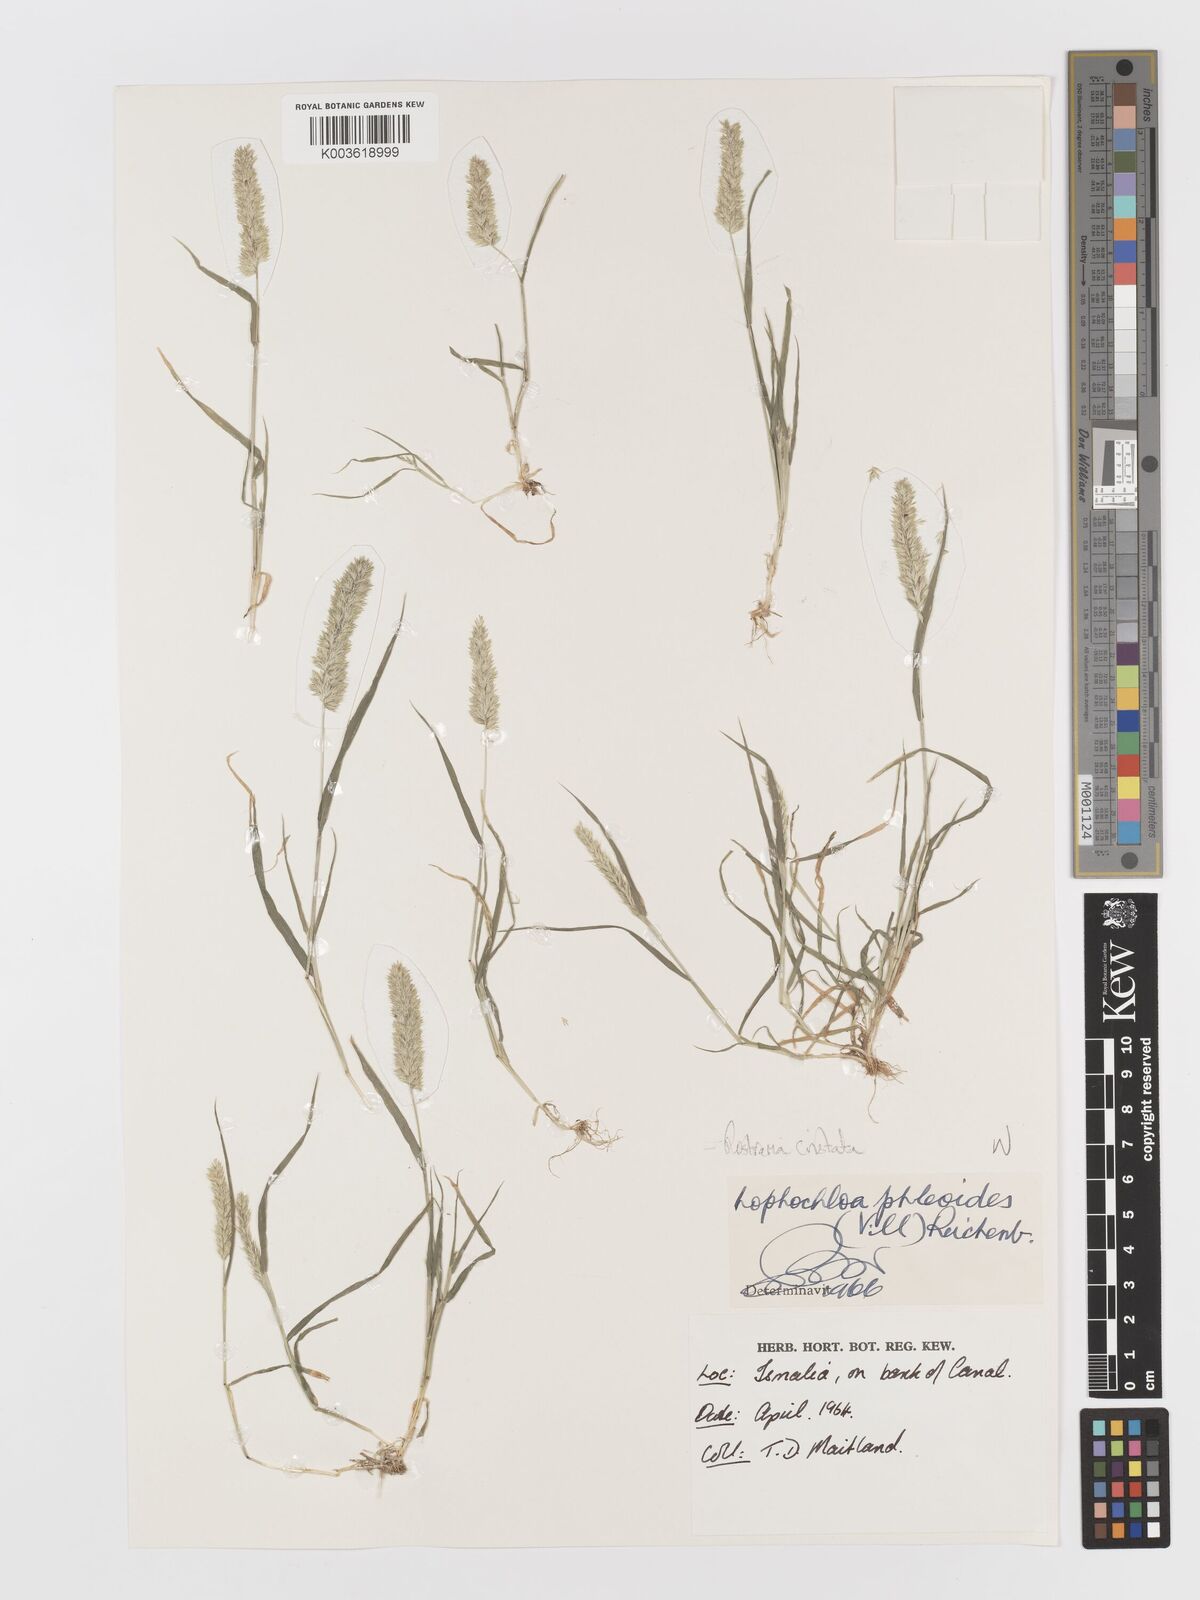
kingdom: Plantae
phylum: Tracheophyta
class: Liliopsida
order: Poales
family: Poaceae
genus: Rostraria
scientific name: Rostraria cristata
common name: Mediterranean hair-grass
